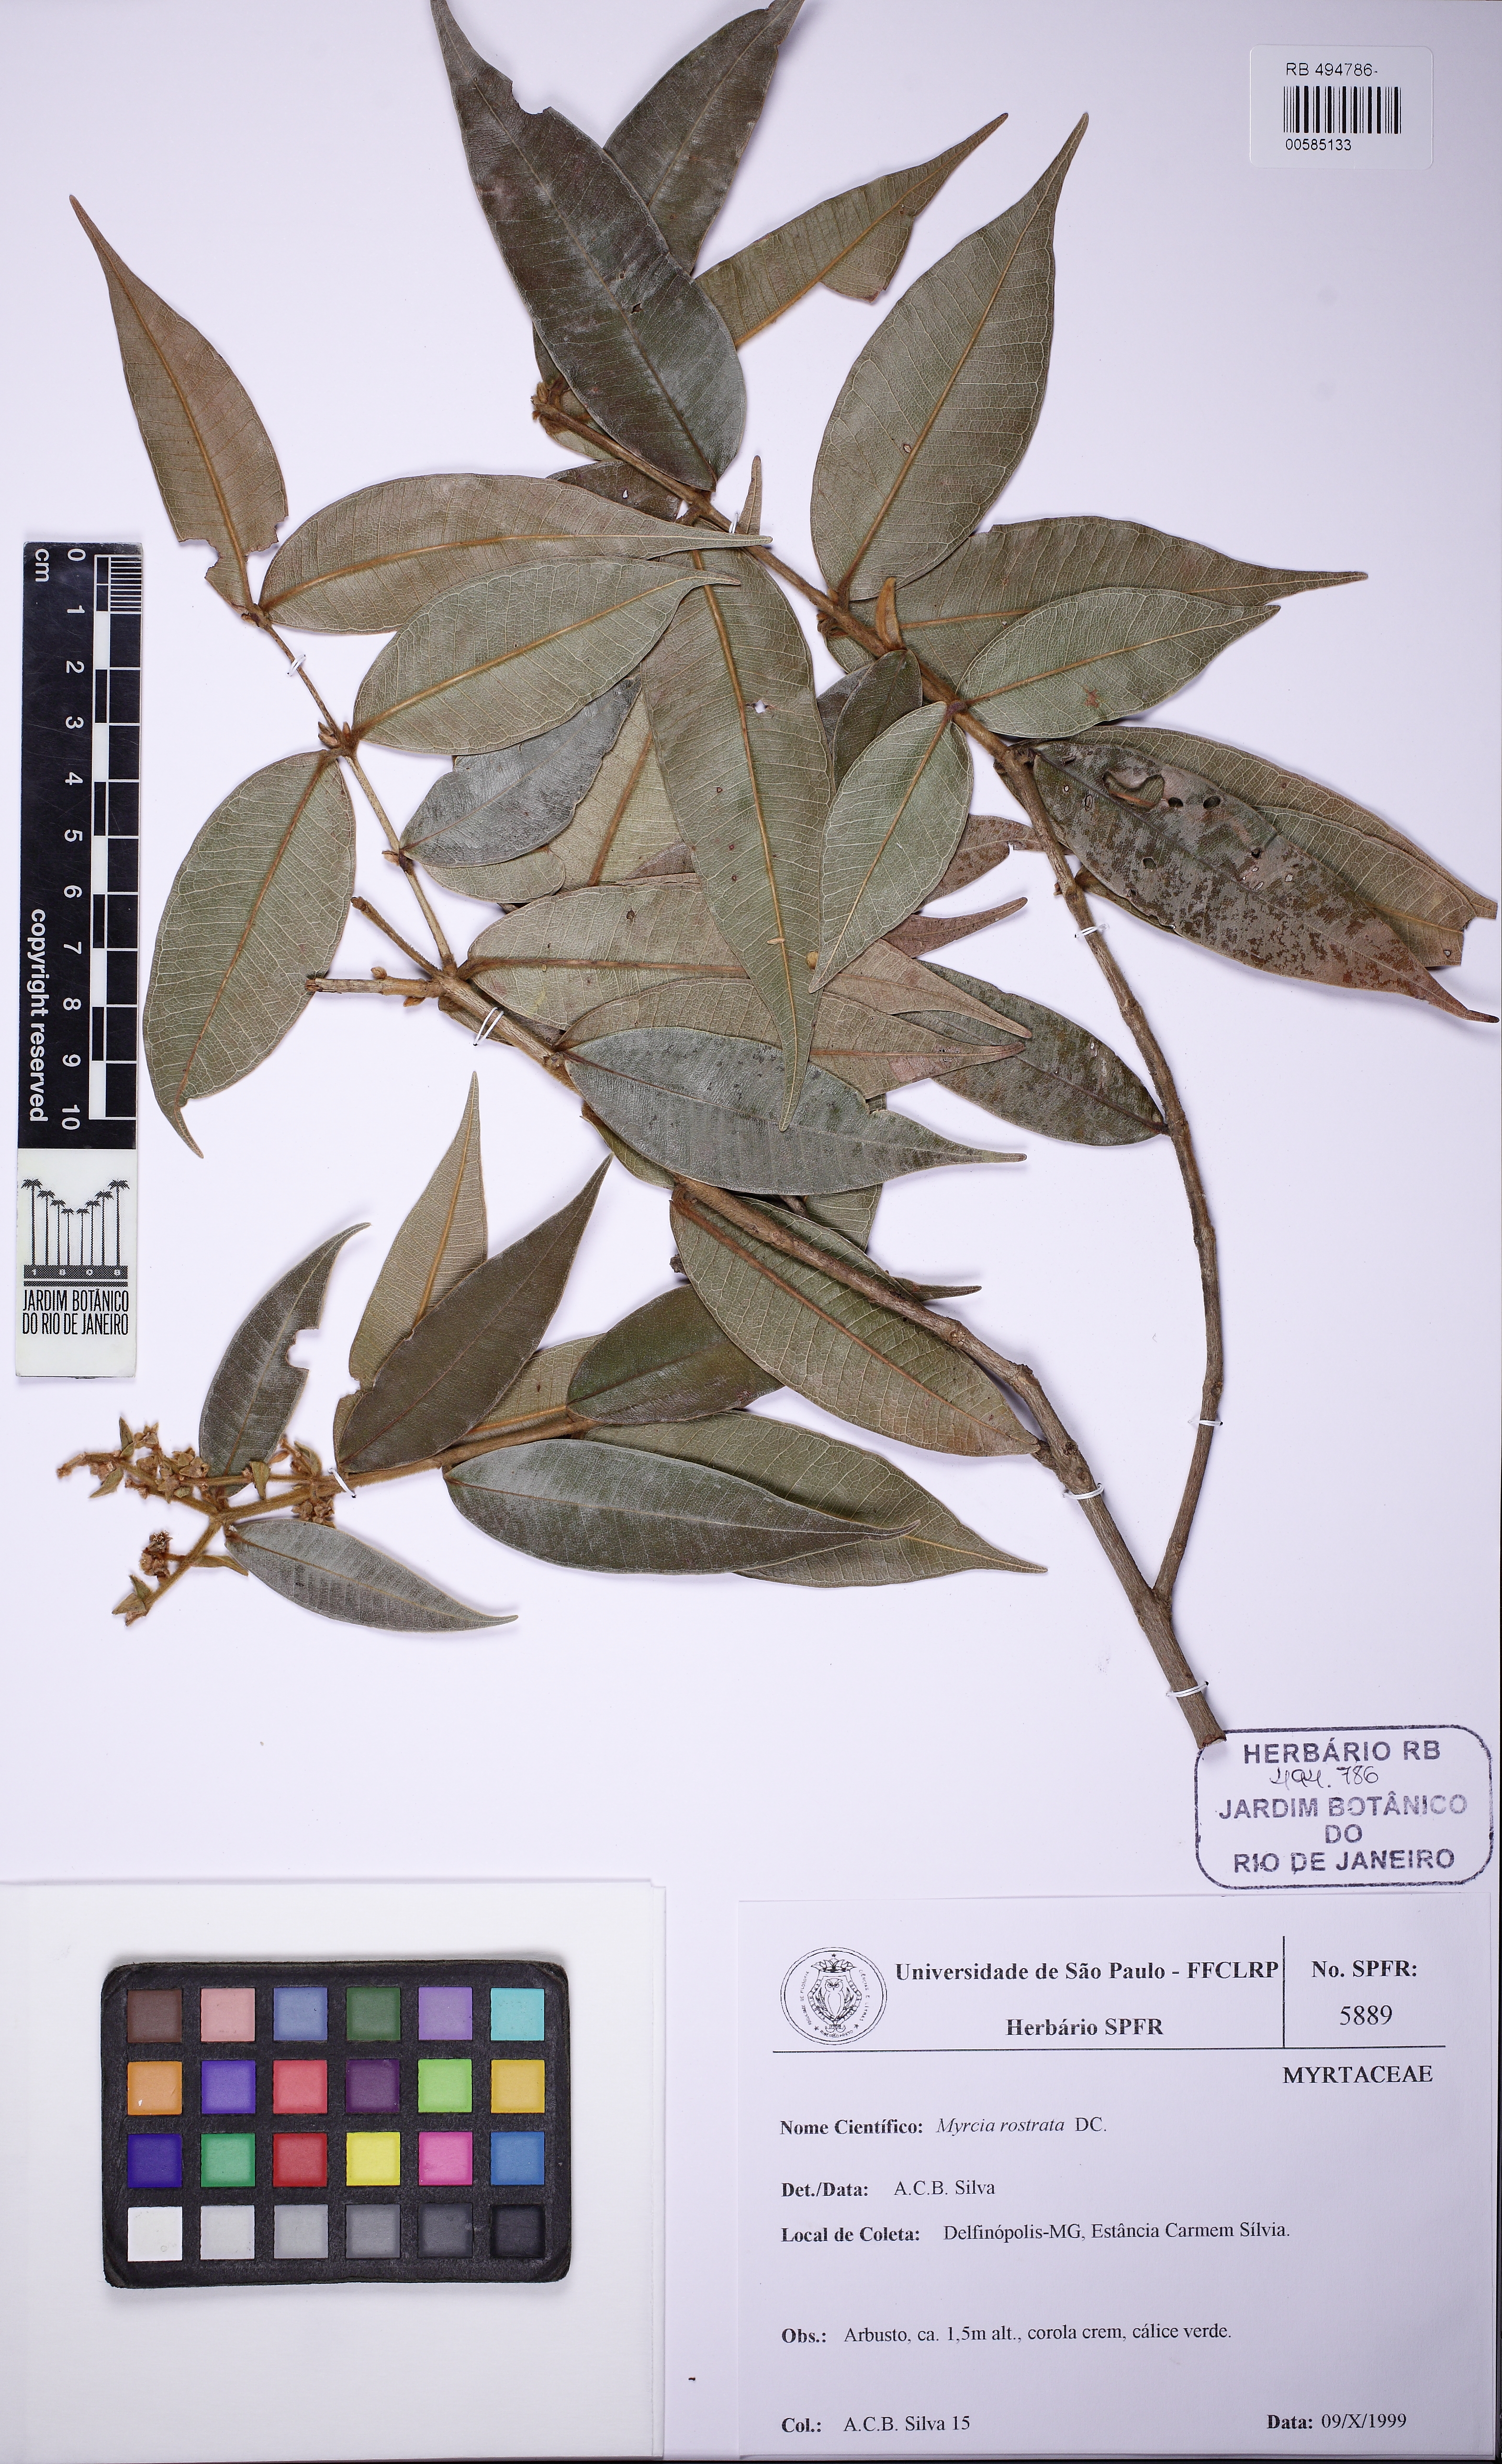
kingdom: Plantae
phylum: Tracheophyta
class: Magnoliopsida
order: Myrtales
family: Myrtaceae
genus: Myrcia
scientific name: Myrcia splendens
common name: Surinam cherry
